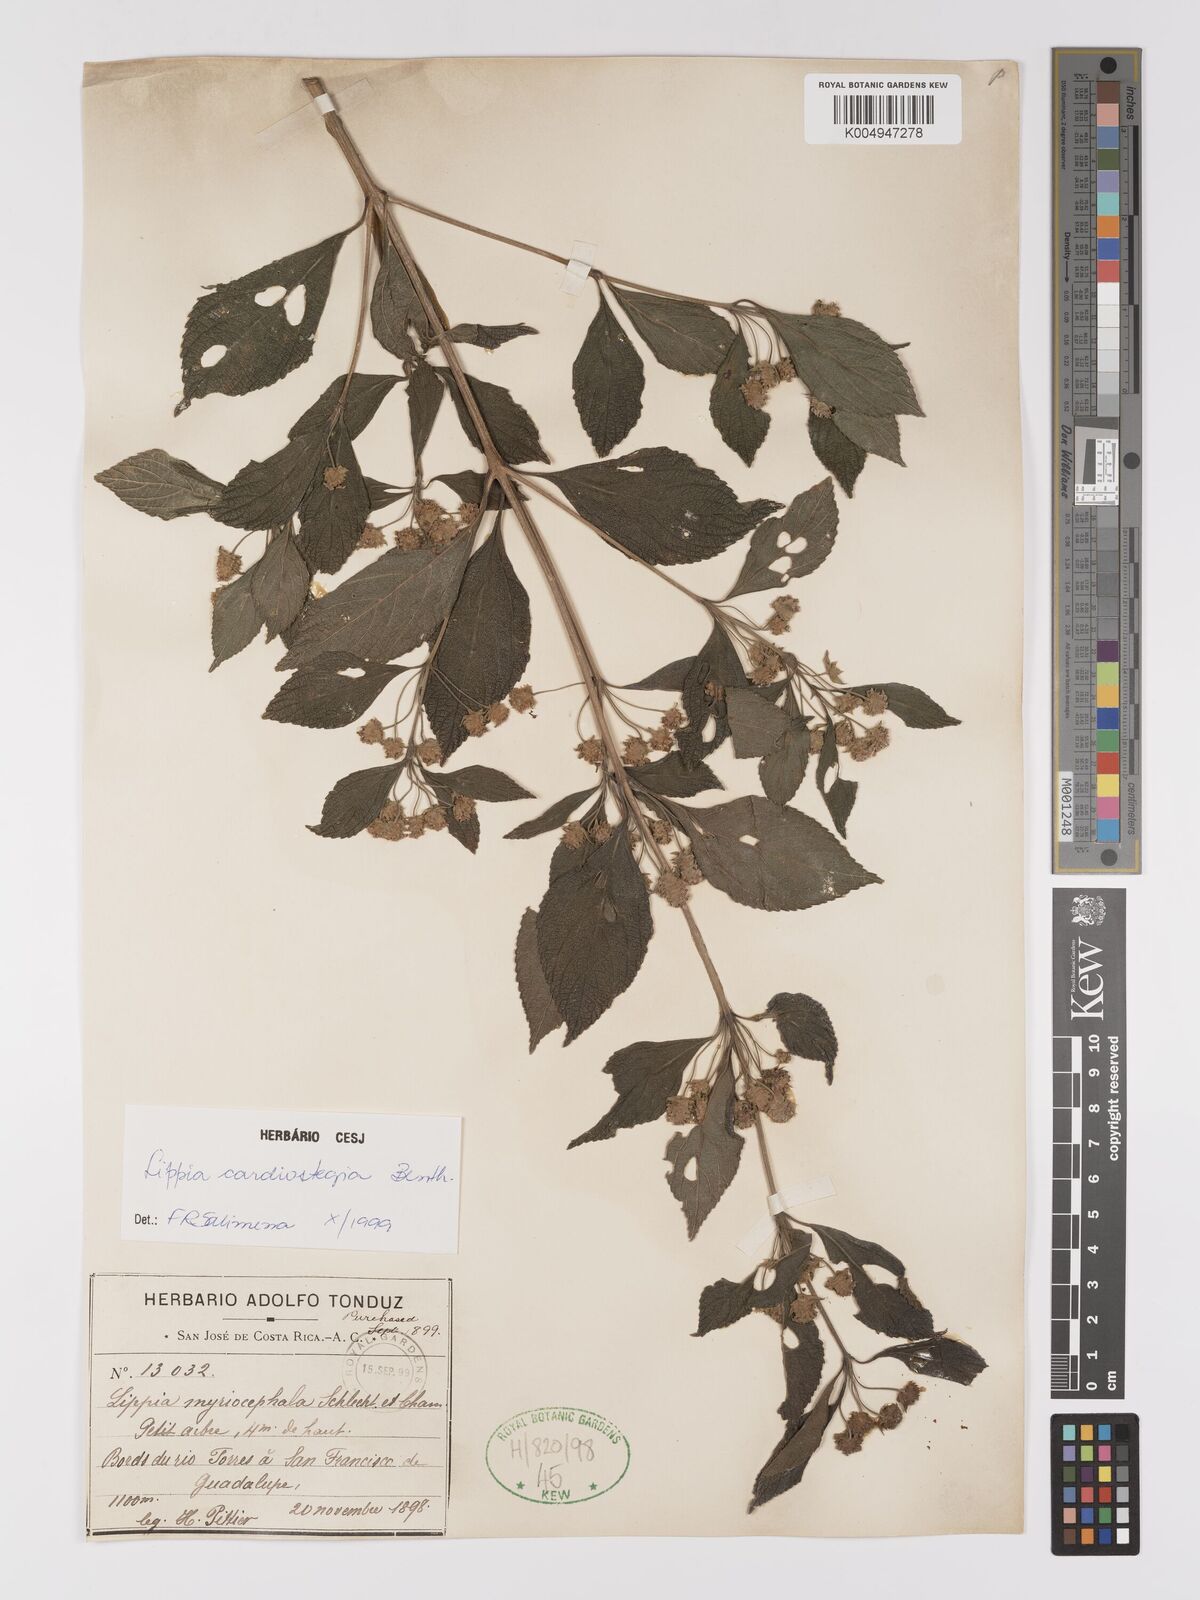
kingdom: Plantae
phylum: Tracheophyta
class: Magnoliopsida
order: Lamiales
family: Verbenaceae
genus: Lippia
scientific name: Lippia cardiostegia
